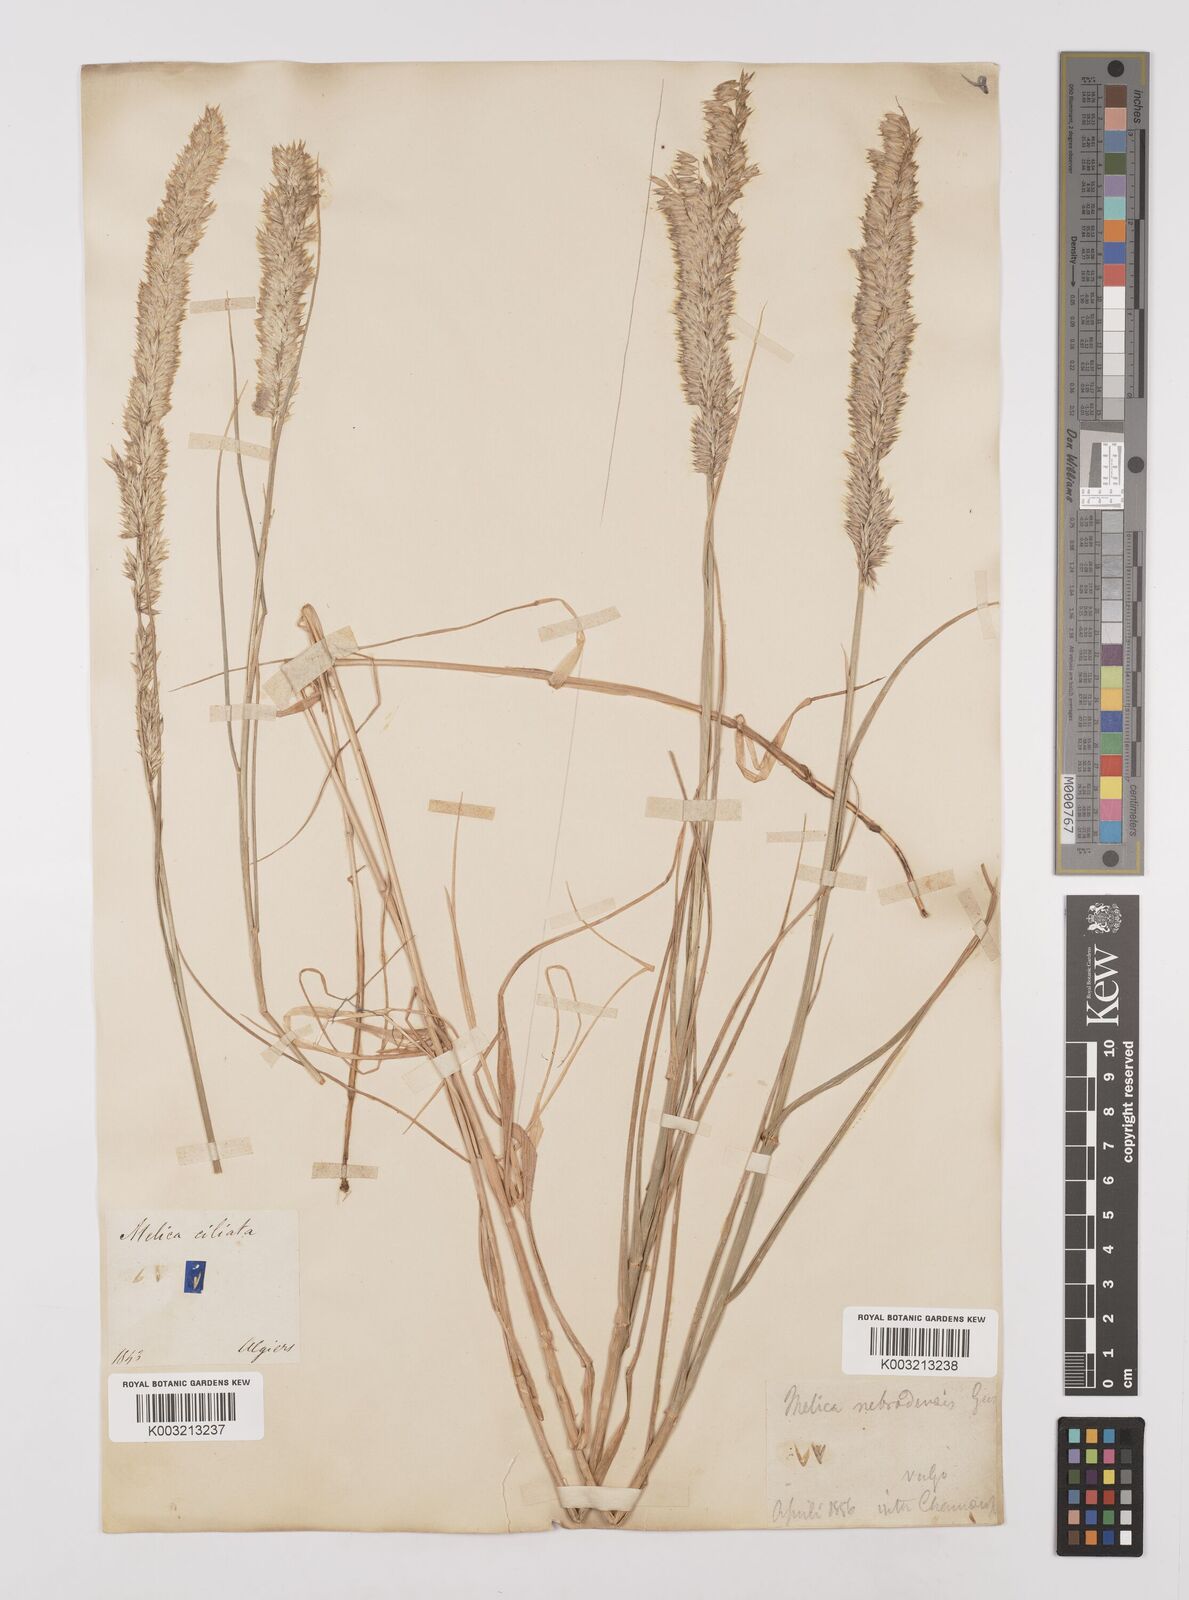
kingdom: Plantae
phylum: Tracheophyta
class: Liliopsida
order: Poales
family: Poaceae
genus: Melica
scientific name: Melica ciliata
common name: Hairy melicgrass
